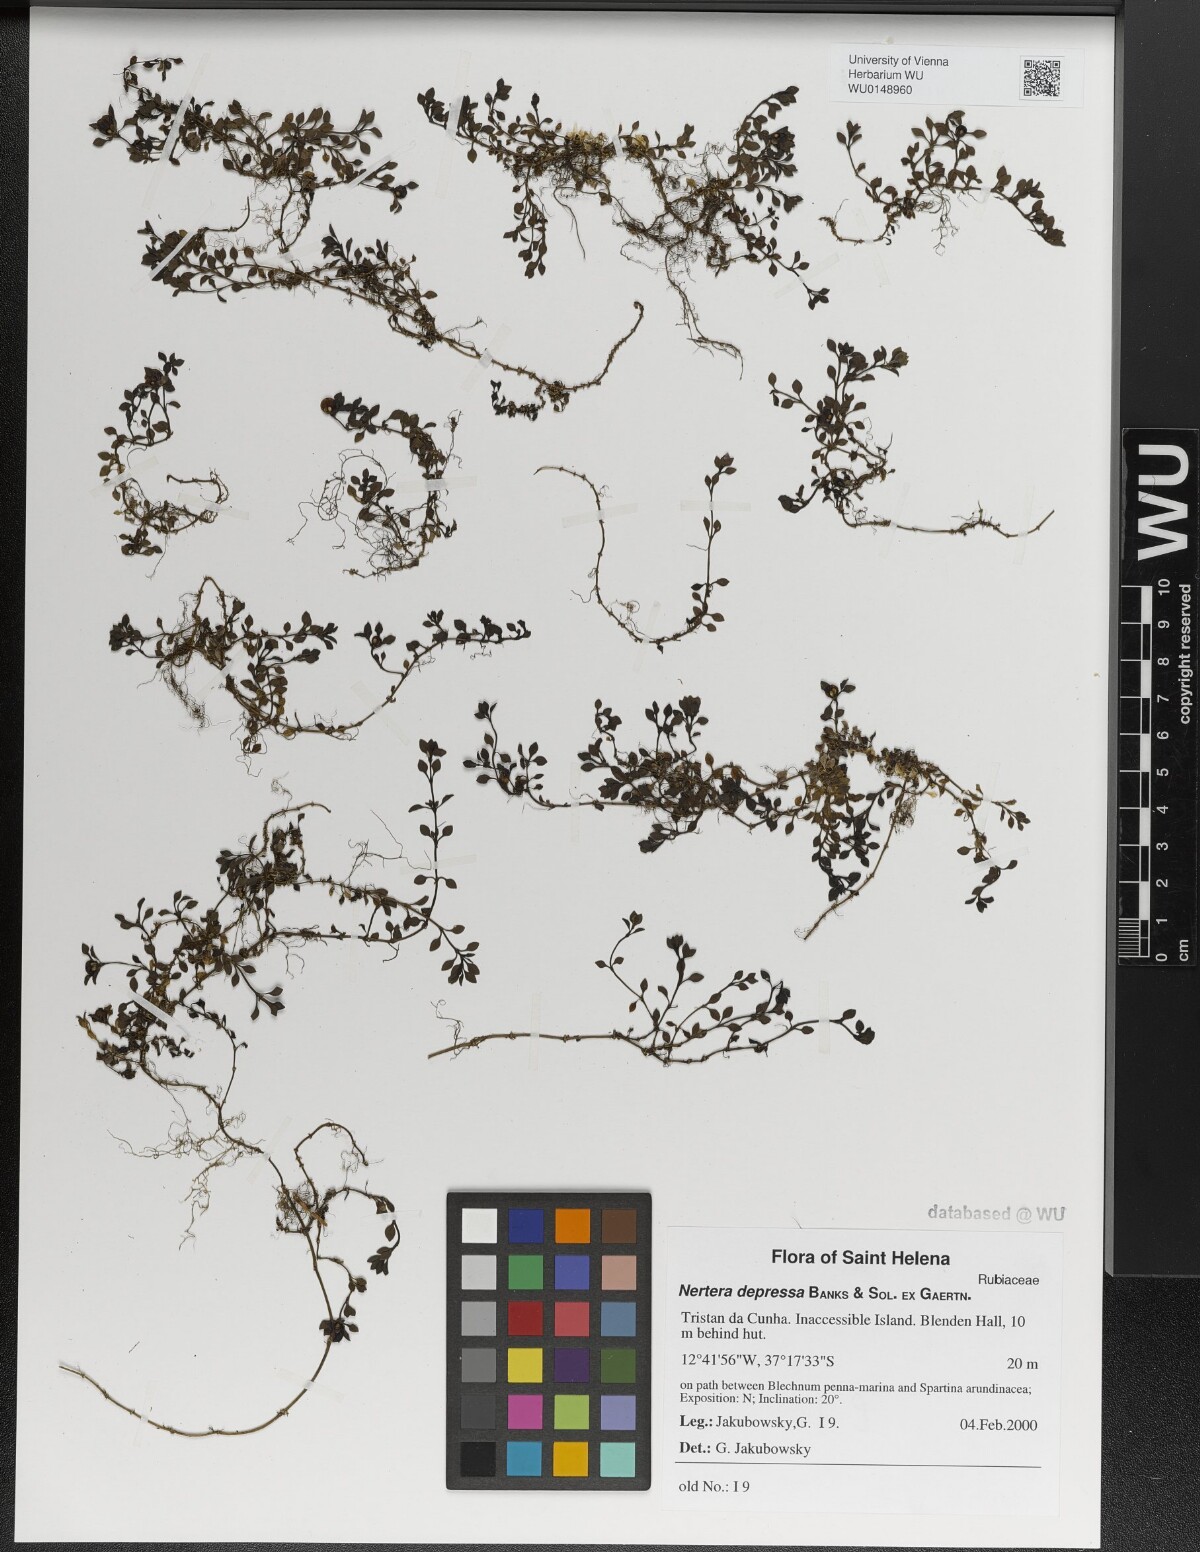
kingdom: Plantae
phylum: Tracheophyta
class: Magnoliopsida
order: Gentianales
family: Rubiaceae
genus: Nertera
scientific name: Nertera granadensis
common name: Beadplant
